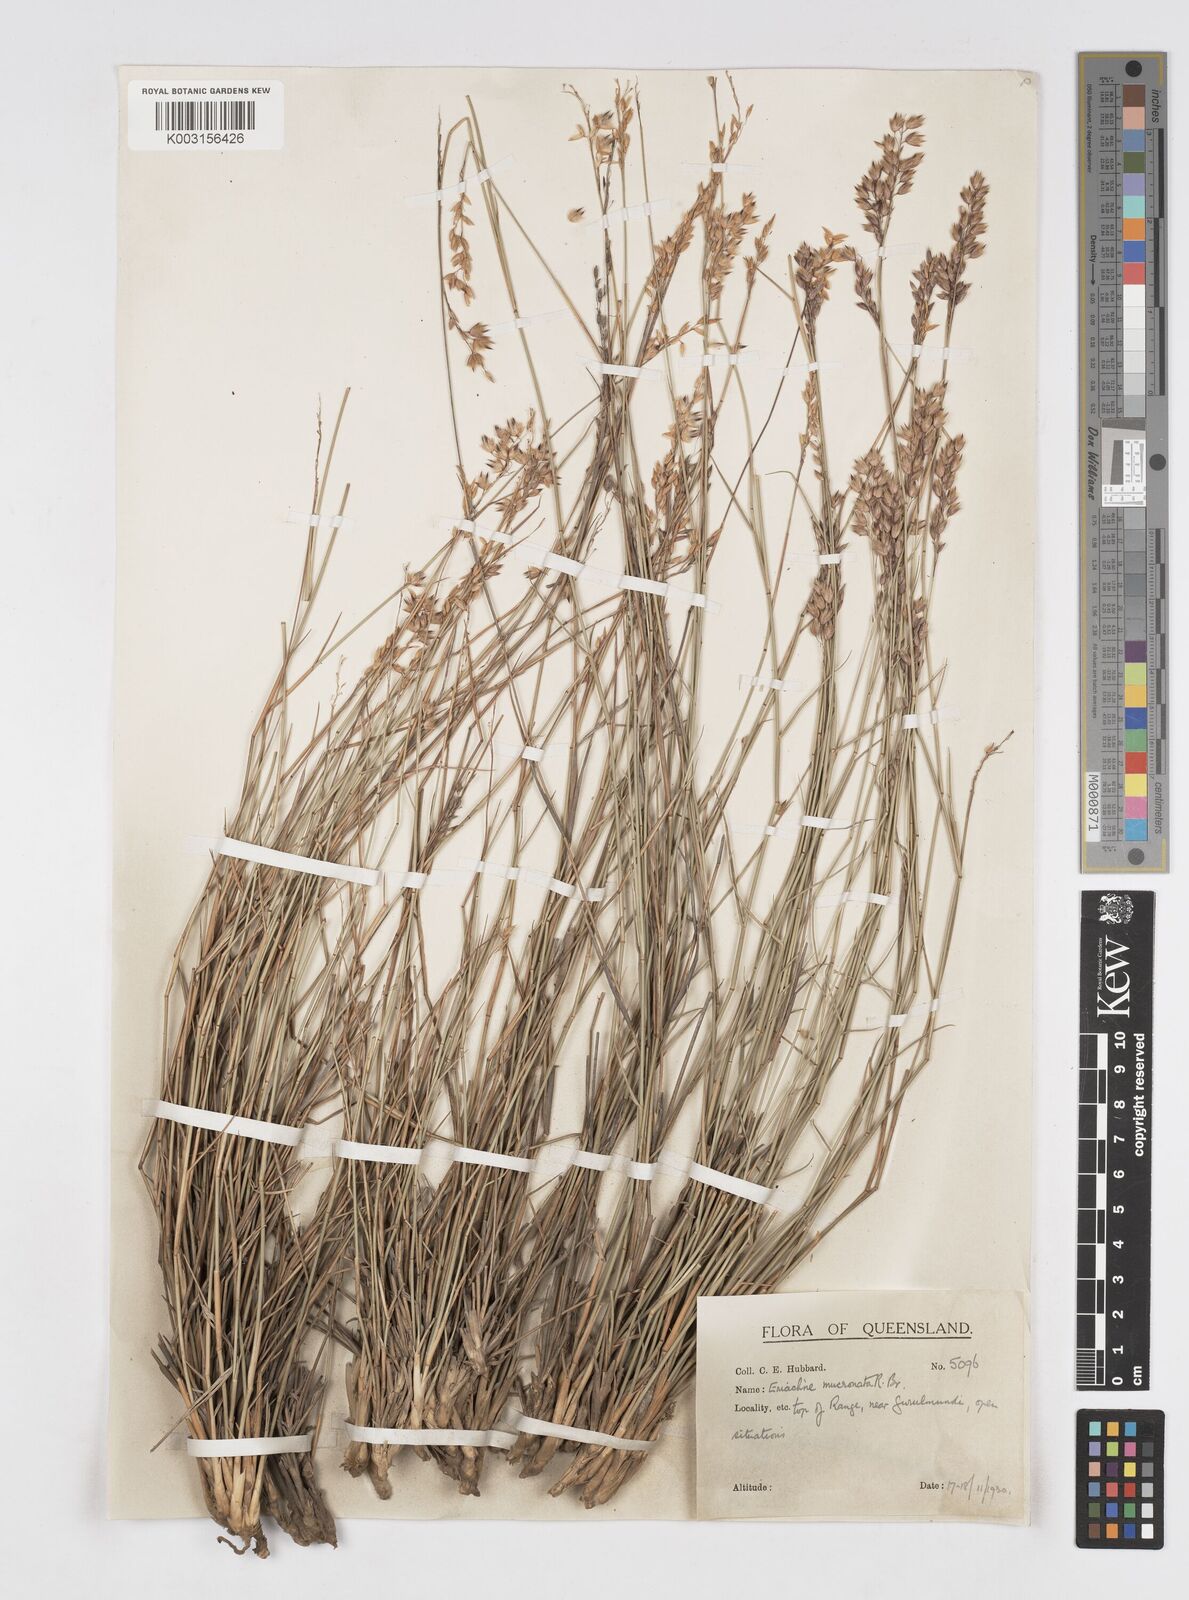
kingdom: Plantae
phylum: Tracheophyta
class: Liliopsida
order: Poales
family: Poaceae
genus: Eriachne
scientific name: Eriachne mucronata
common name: Mountain wanderrie grass
